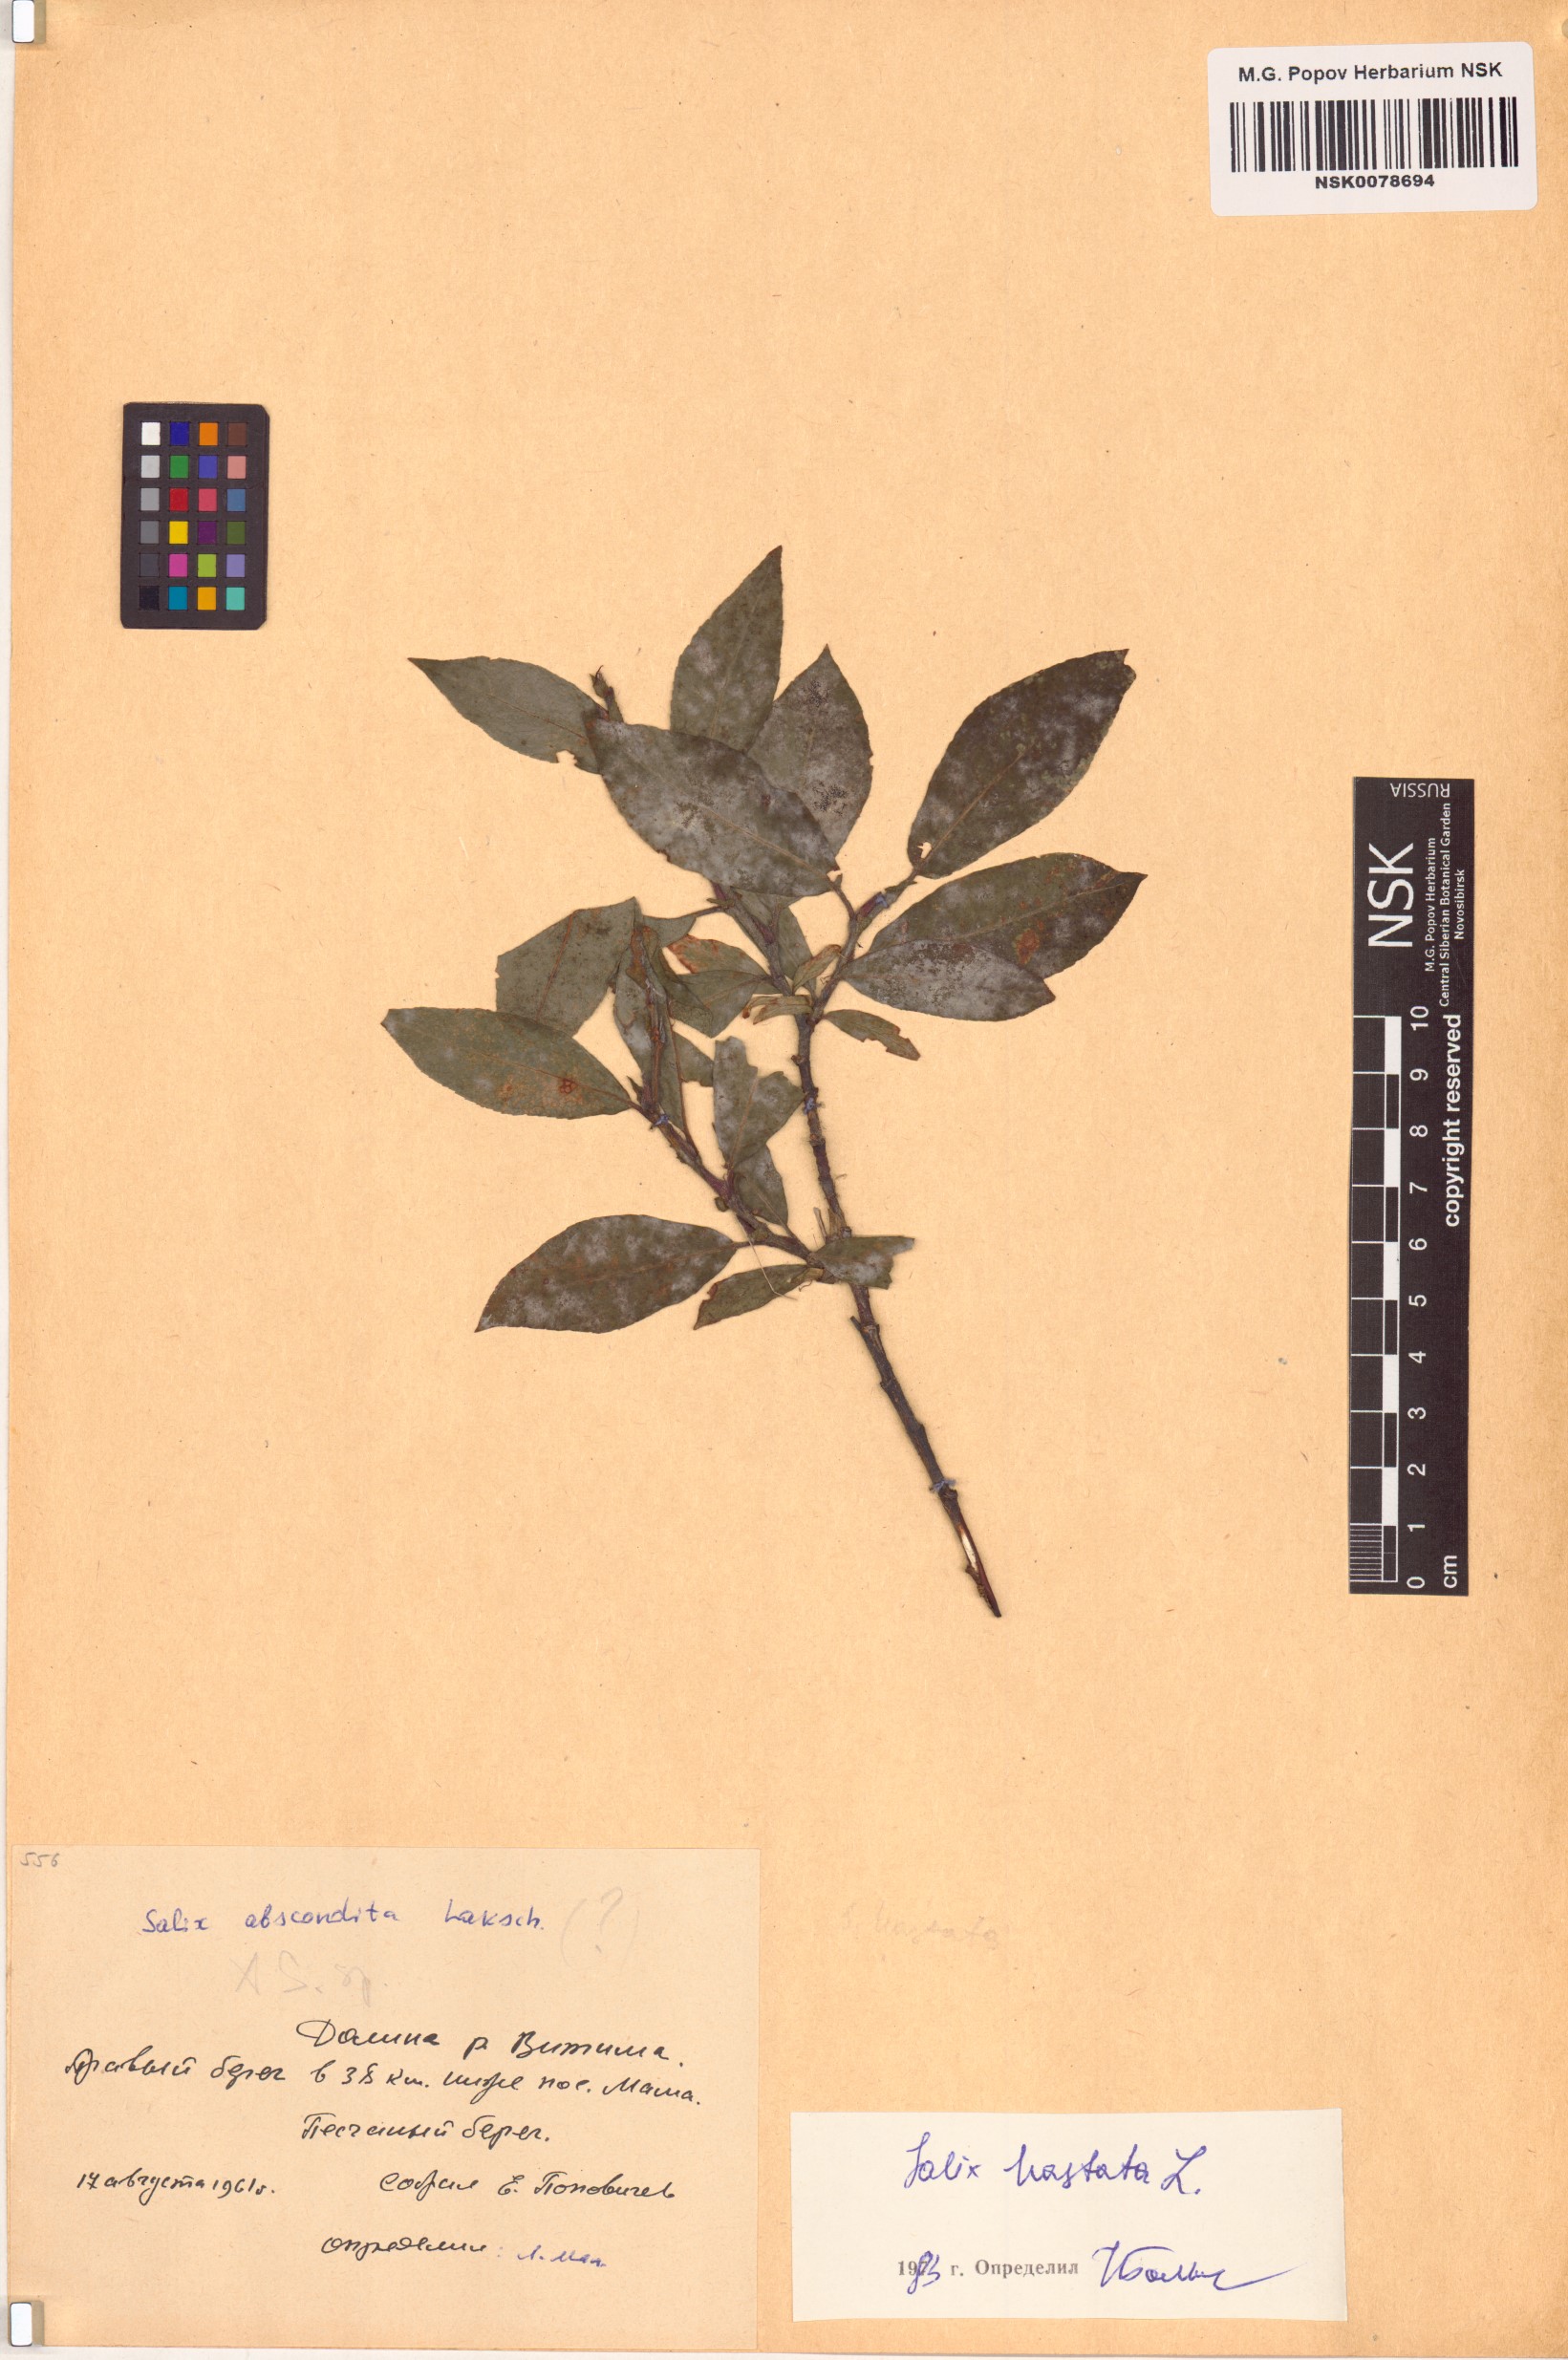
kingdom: Plantae
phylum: Tracheophyta
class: Magnoliopsida
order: Malpighiales
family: Salicaceae
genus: Salix
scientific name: Salix hastata
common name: Halberd willow
